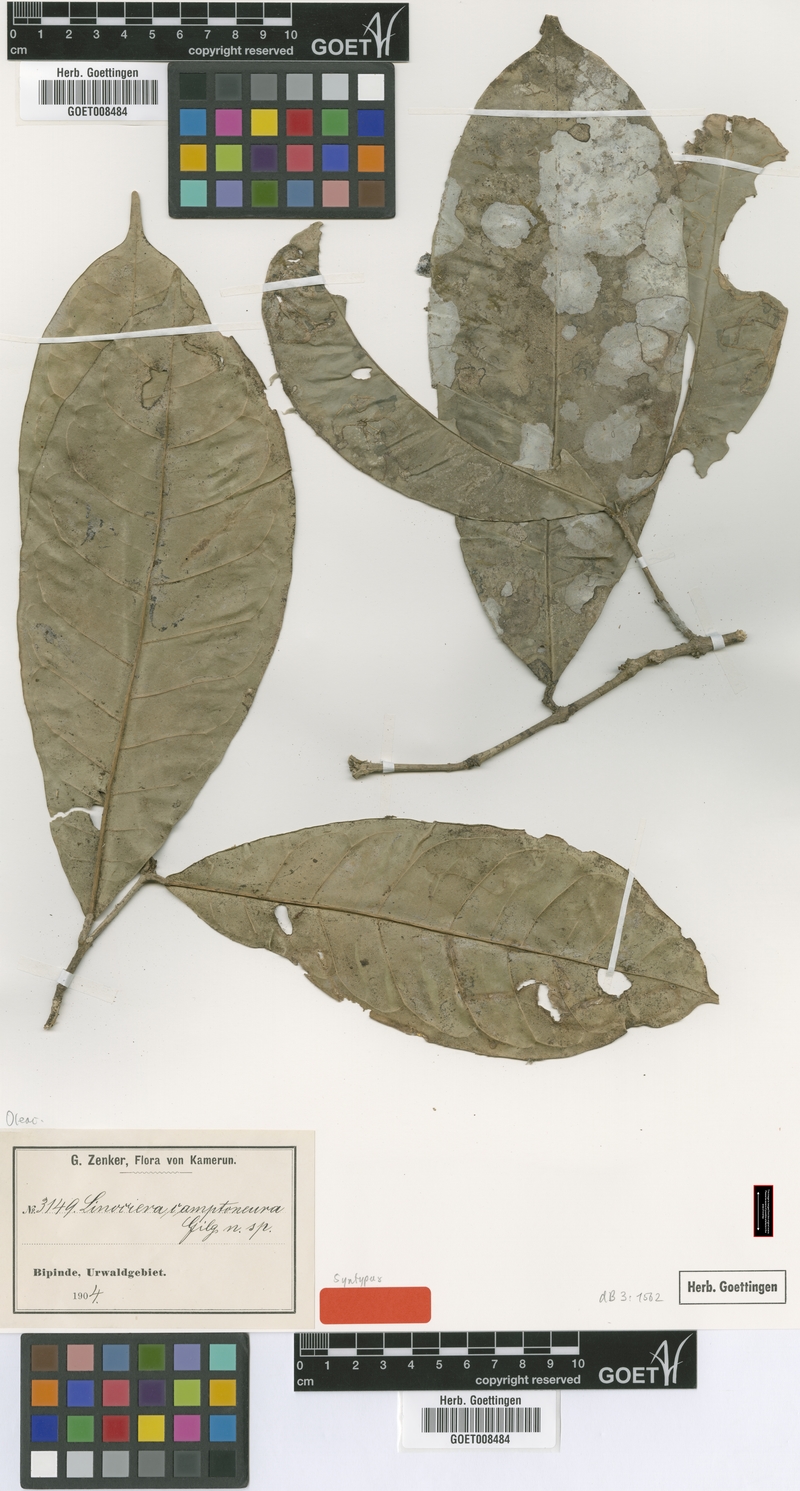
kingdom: Plantae
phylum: Tracheophyta
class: Magnoliopsida
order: Lamiales
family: Oleaceae
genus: Noronhia
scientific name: Noronhia camptoneura
